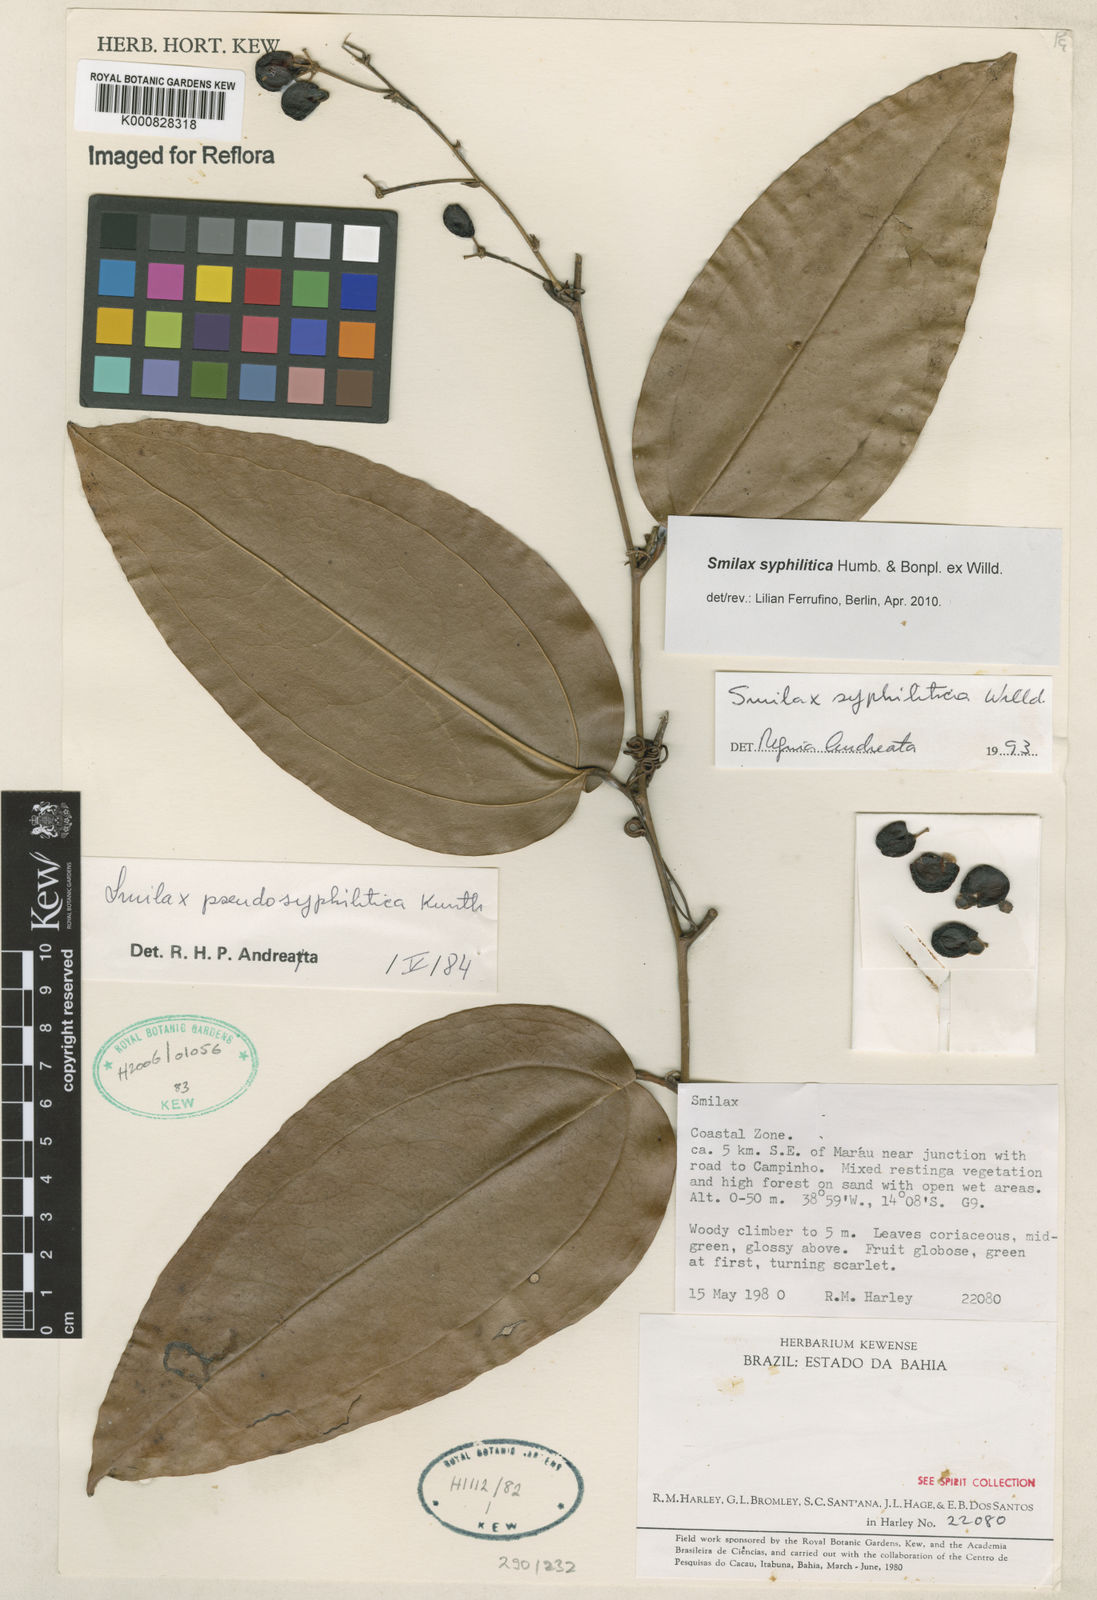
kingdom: Plantae
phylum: Tracheophyta
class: Liliopsida
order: Liliales
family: Smilacaceae
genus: Smilax
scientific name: Smilax siphilitica
